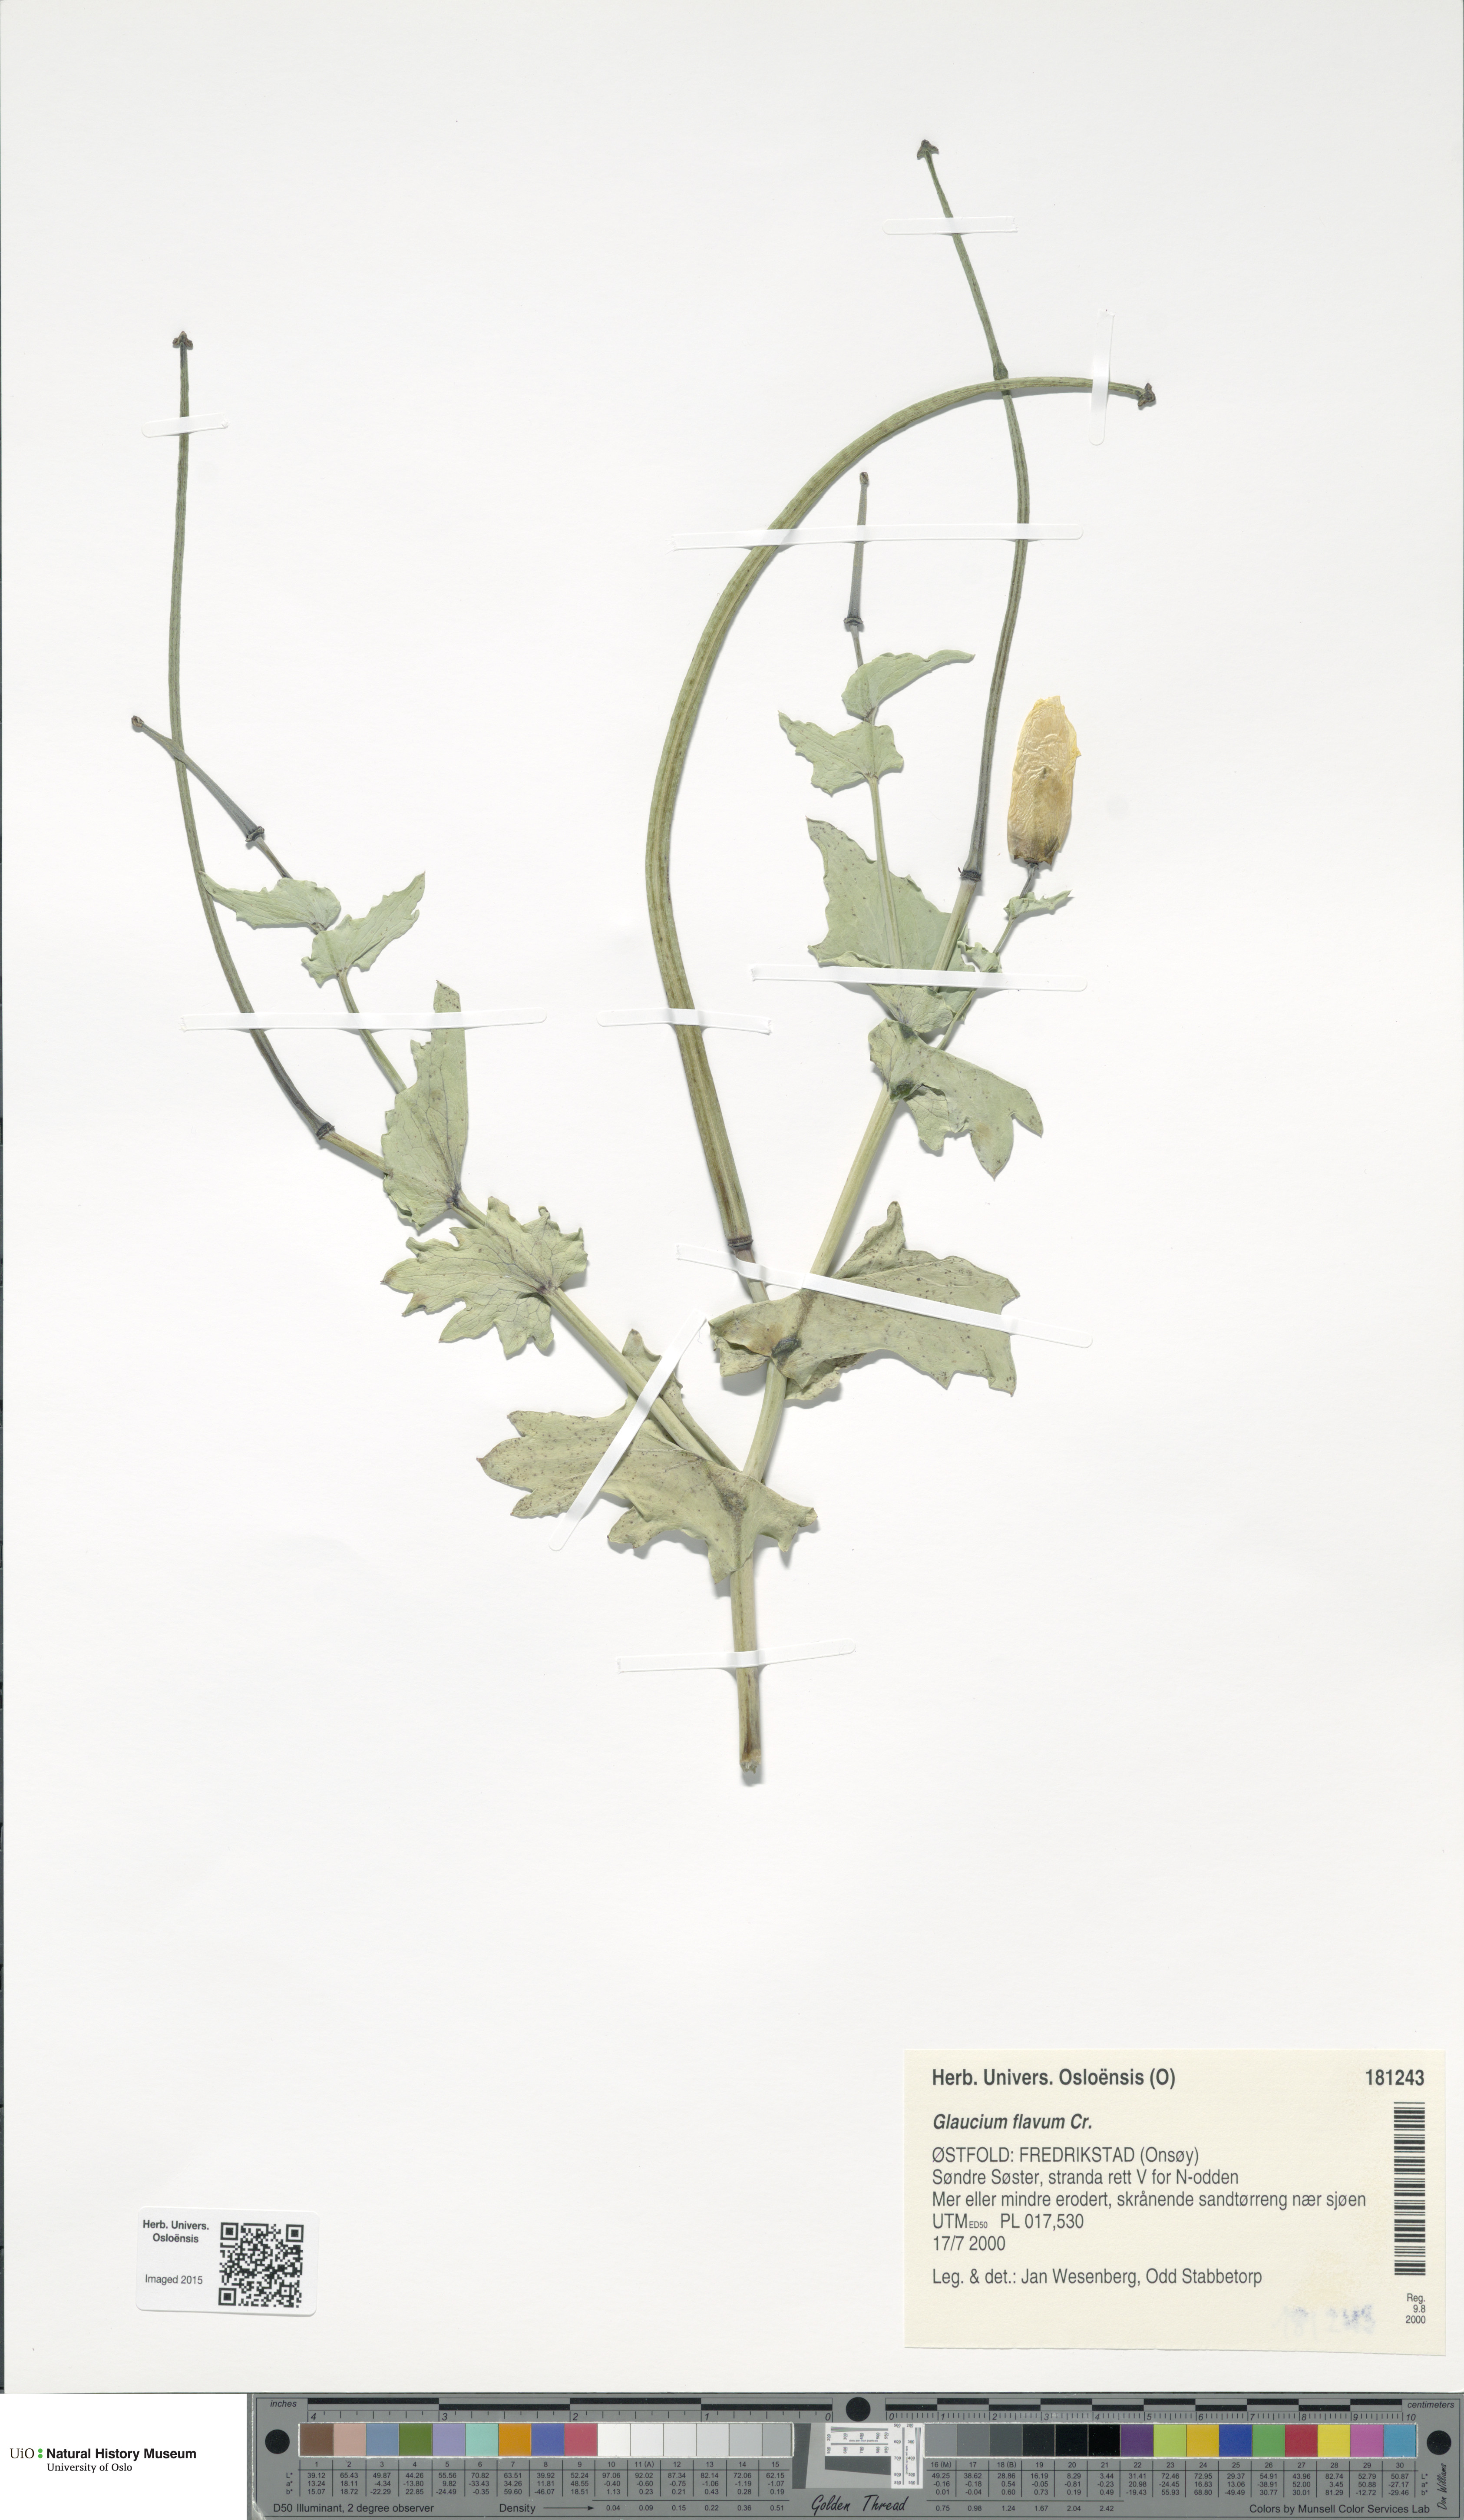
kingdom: Plantae
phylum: Tracheophyta
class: Magnoliopsida
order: Ranunculales
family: Papaveraceae
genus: Glaucium
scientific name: Glaucium flavum
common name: Yellow horned-poppy
